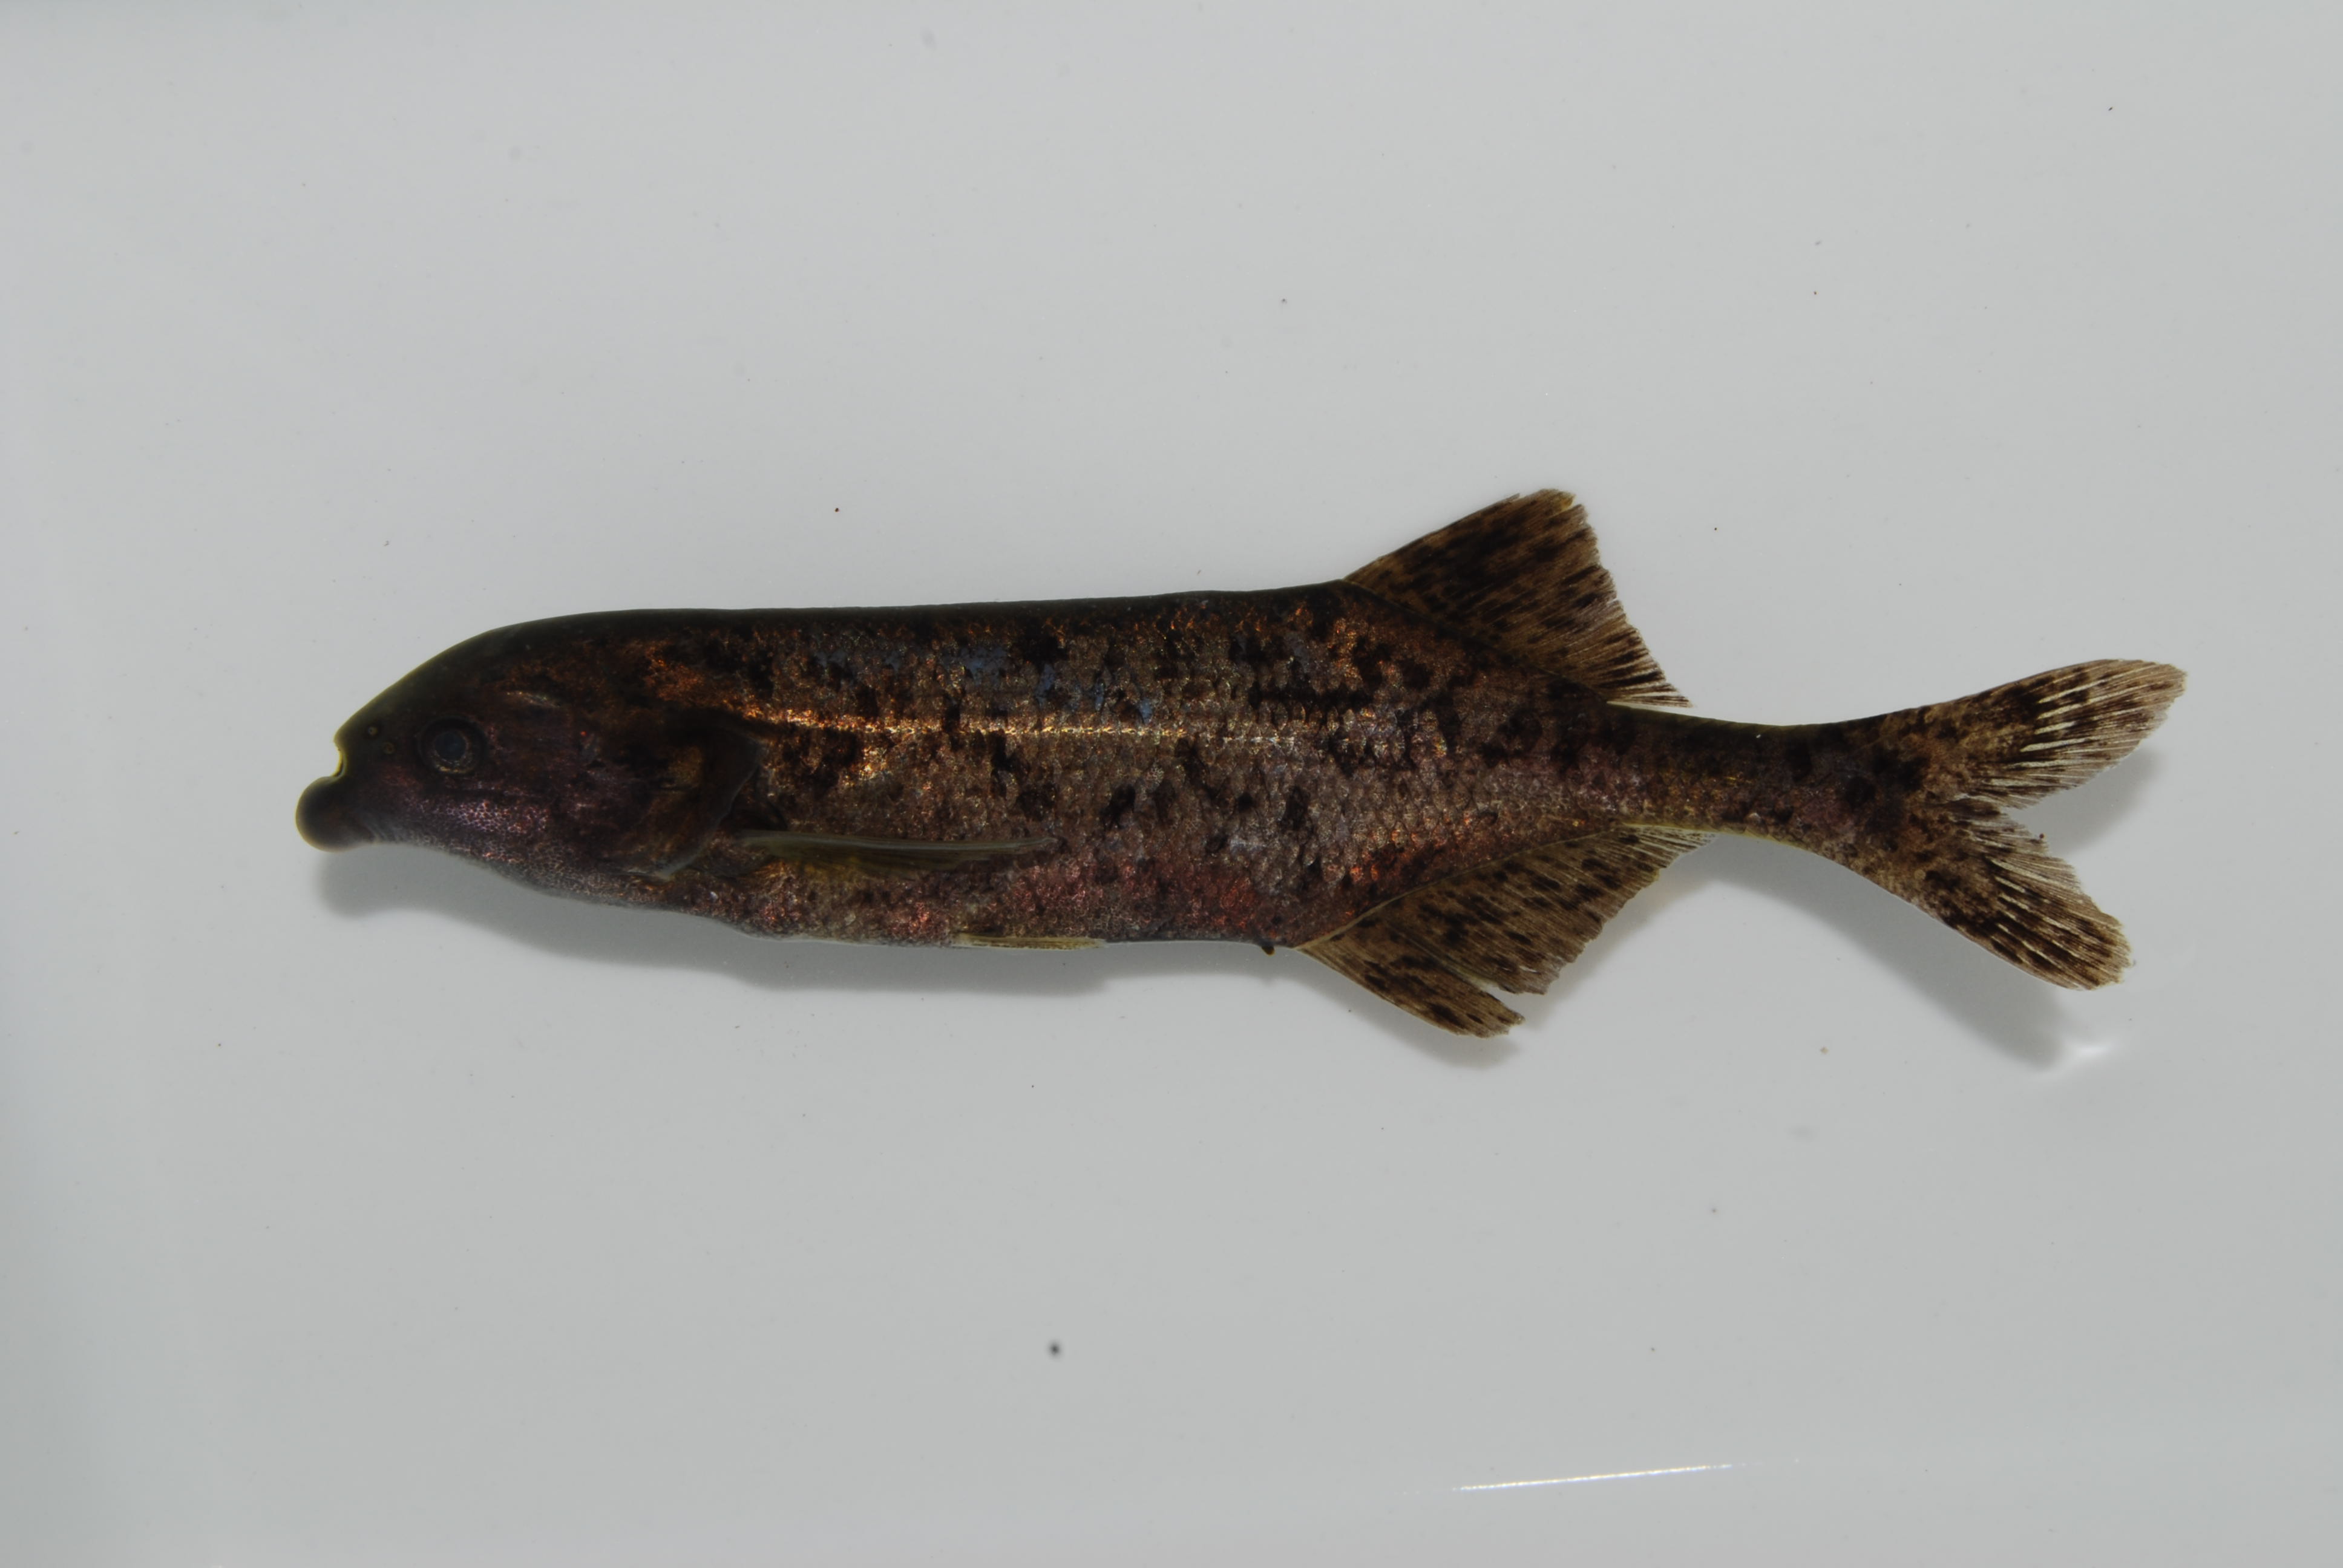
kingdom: Animalia
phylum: Chordata
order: Osteoglossiformes
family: Mormyridae
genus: Marcusenius
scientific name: Marcusenius altisambesi
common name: Bulldog
